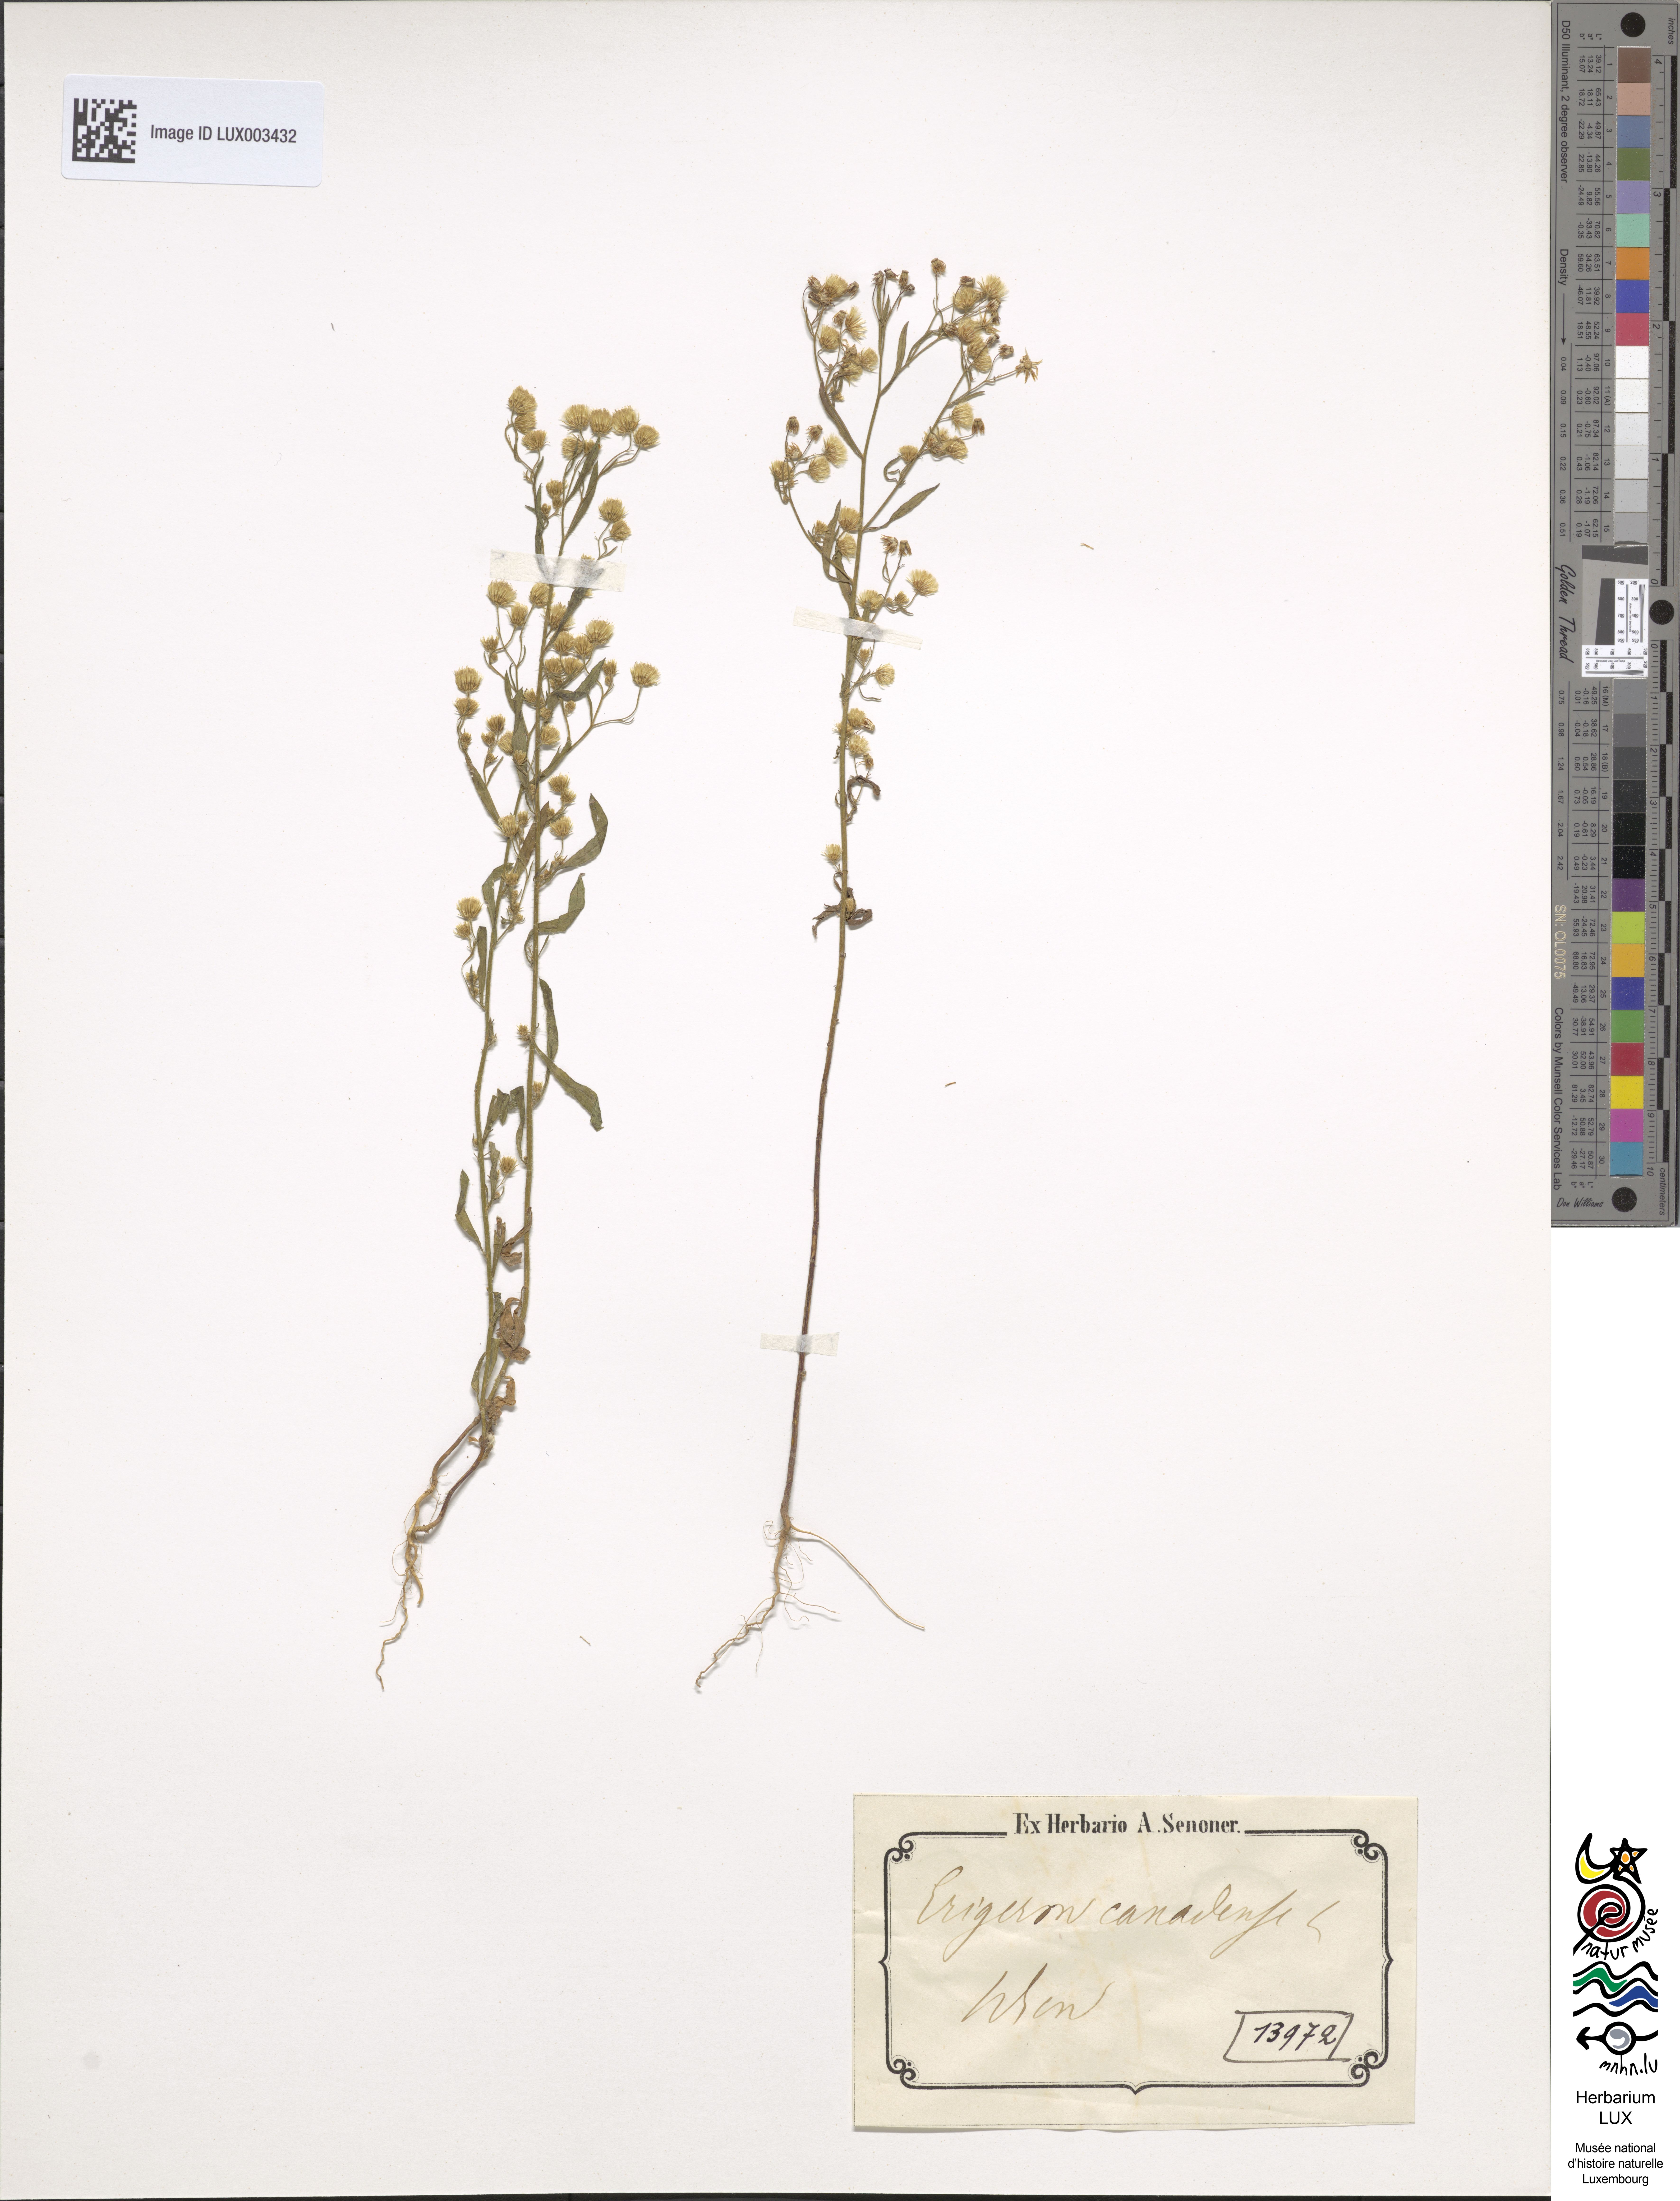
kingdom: Plantae
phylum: Tracheophyta
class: Magnoliopsida
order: Asterales
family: Asteraceae
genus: Erigeron
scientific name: Erigeron canadensis
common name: Canadian fleabane
